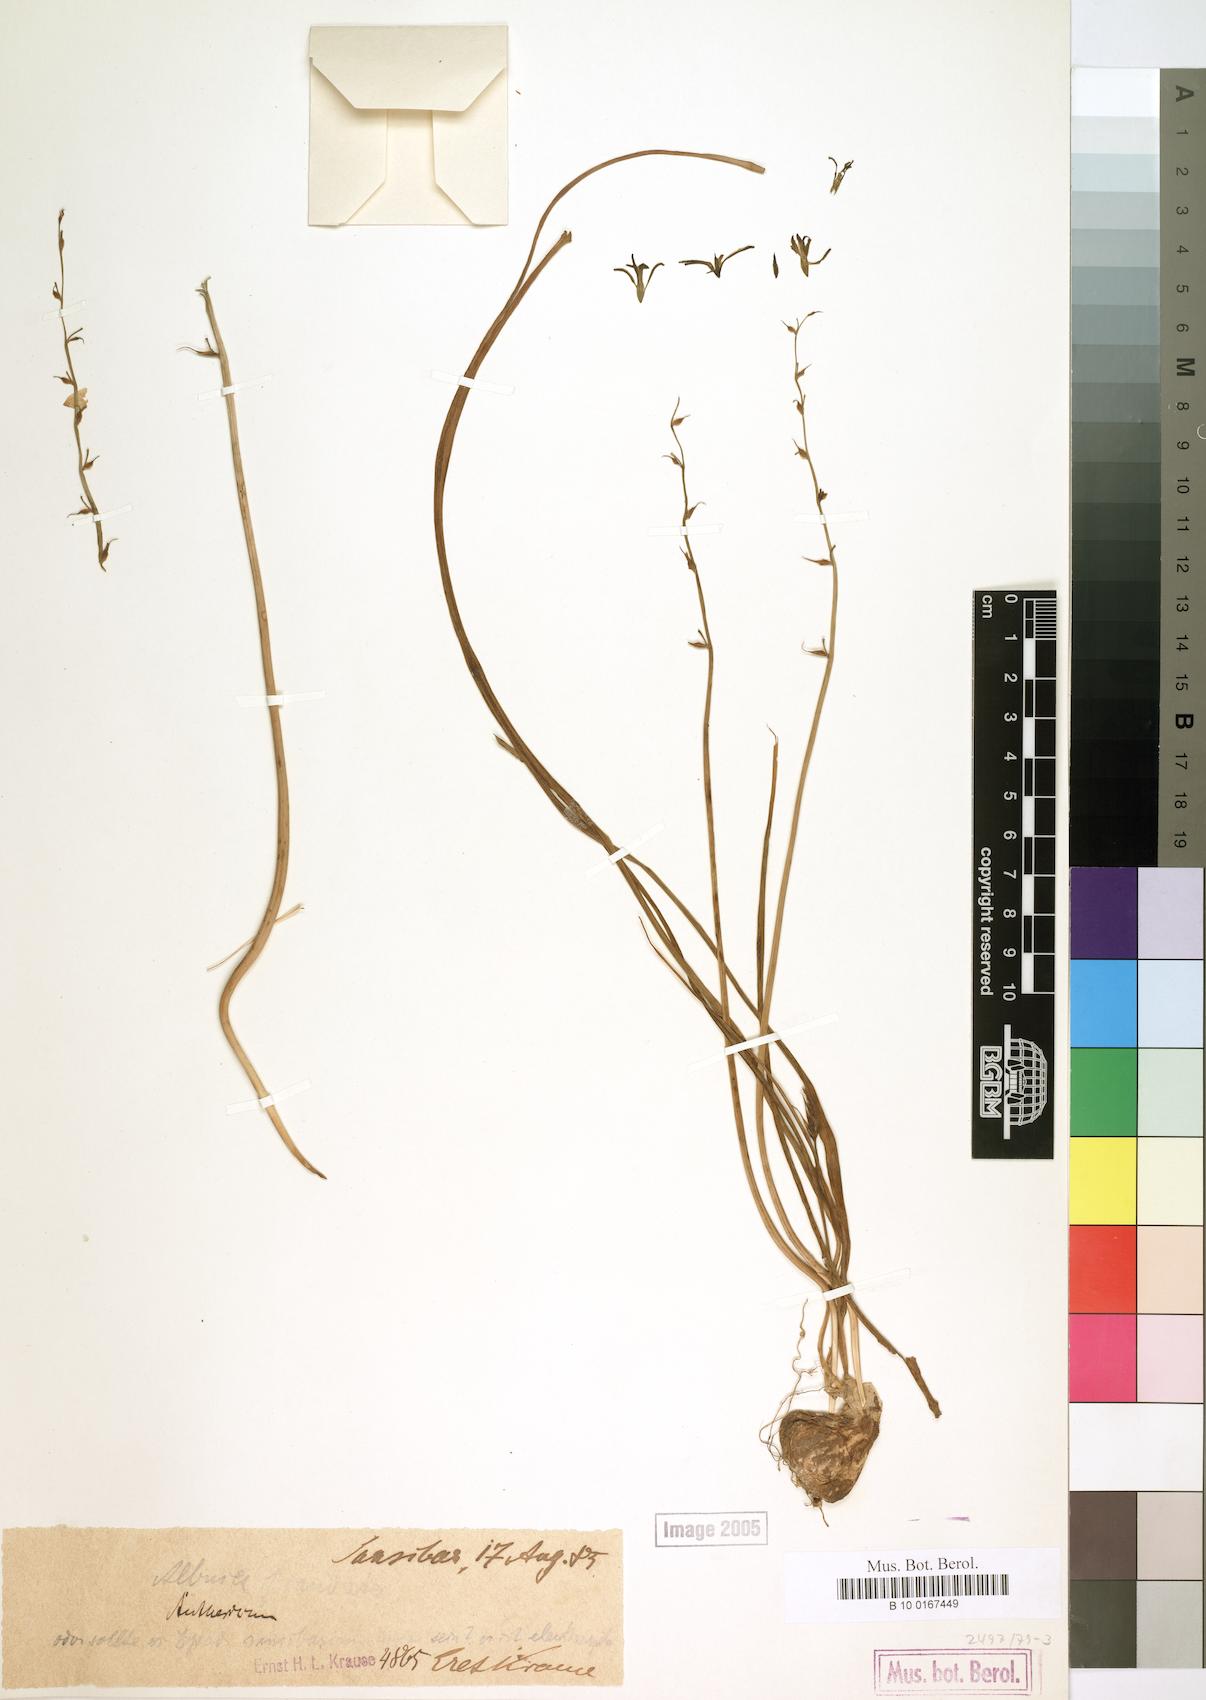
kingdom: Plantae
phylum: Tracheophyta
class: Liliopsida
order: Asparagales
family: Asparagaceae
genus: Albuca
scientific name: Albuca
